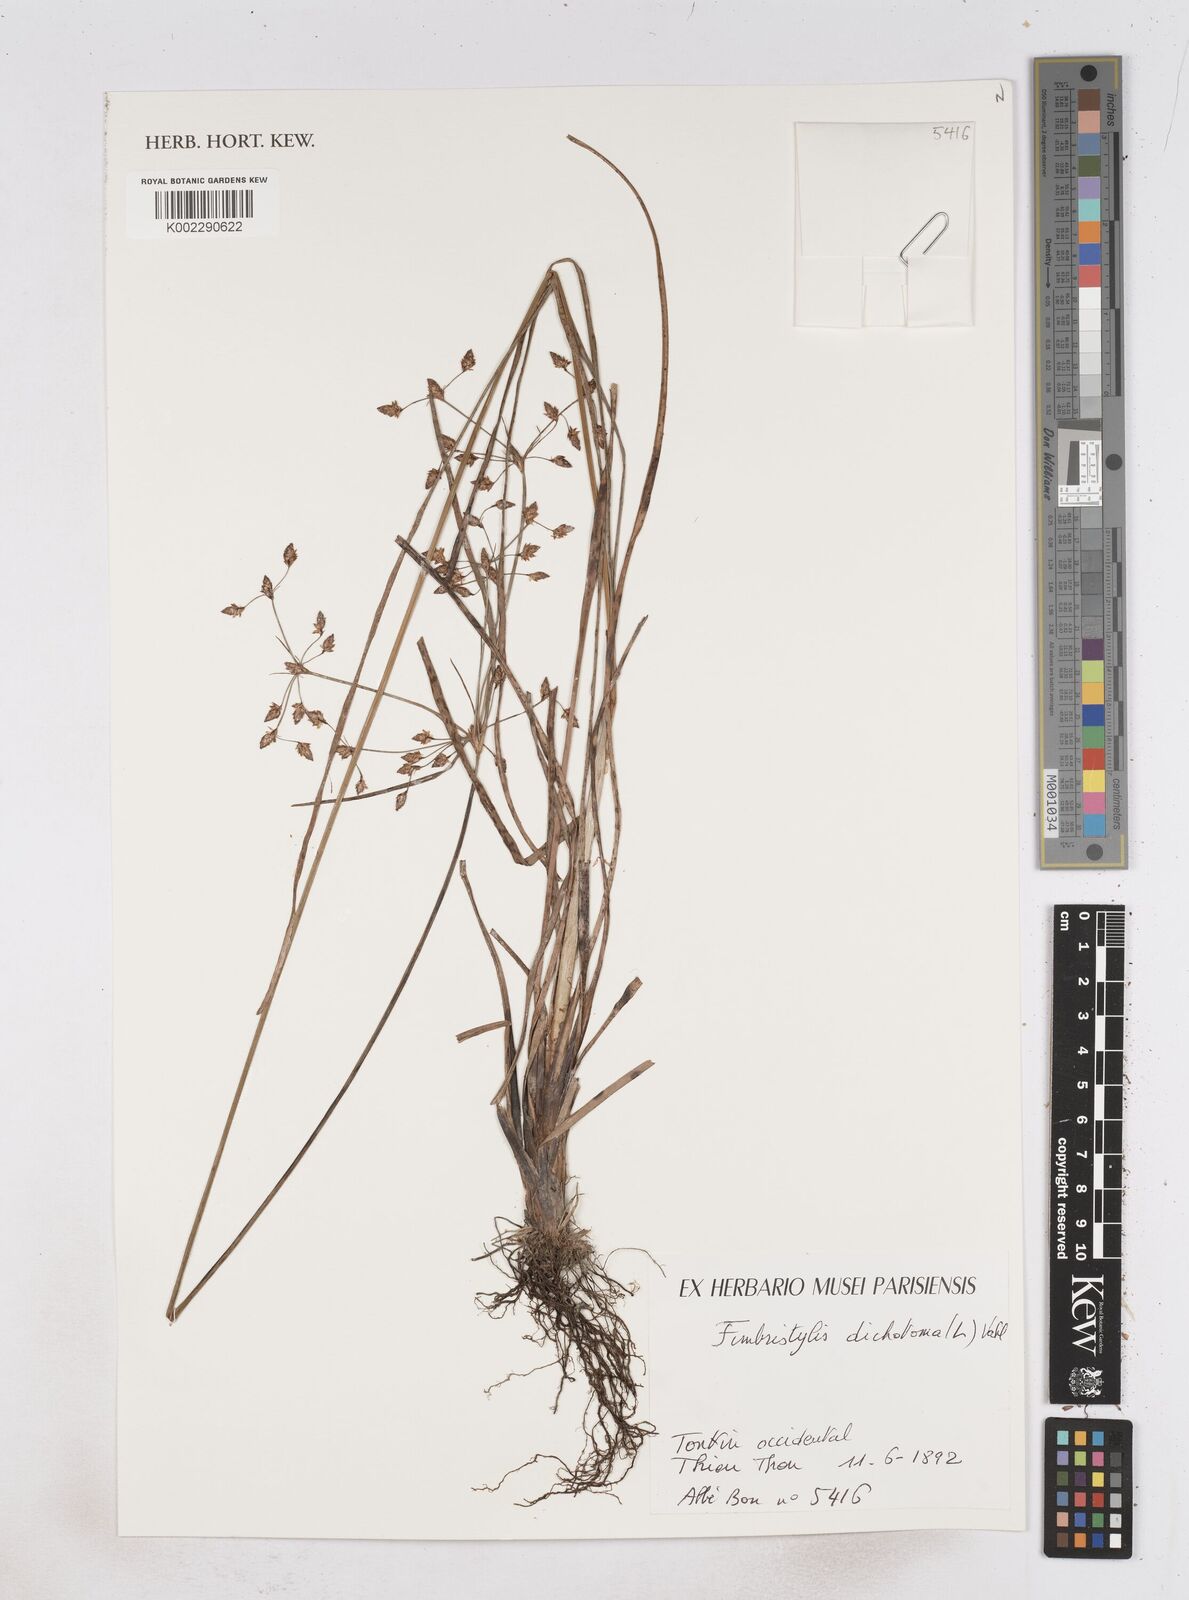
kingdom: Plantae
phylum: Tracheophyta
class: Liliopsida
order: Poales
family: Cyperaceae
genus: Fimbristylis
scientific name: Fimbristylis dichotoma
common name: Forked fimbry
